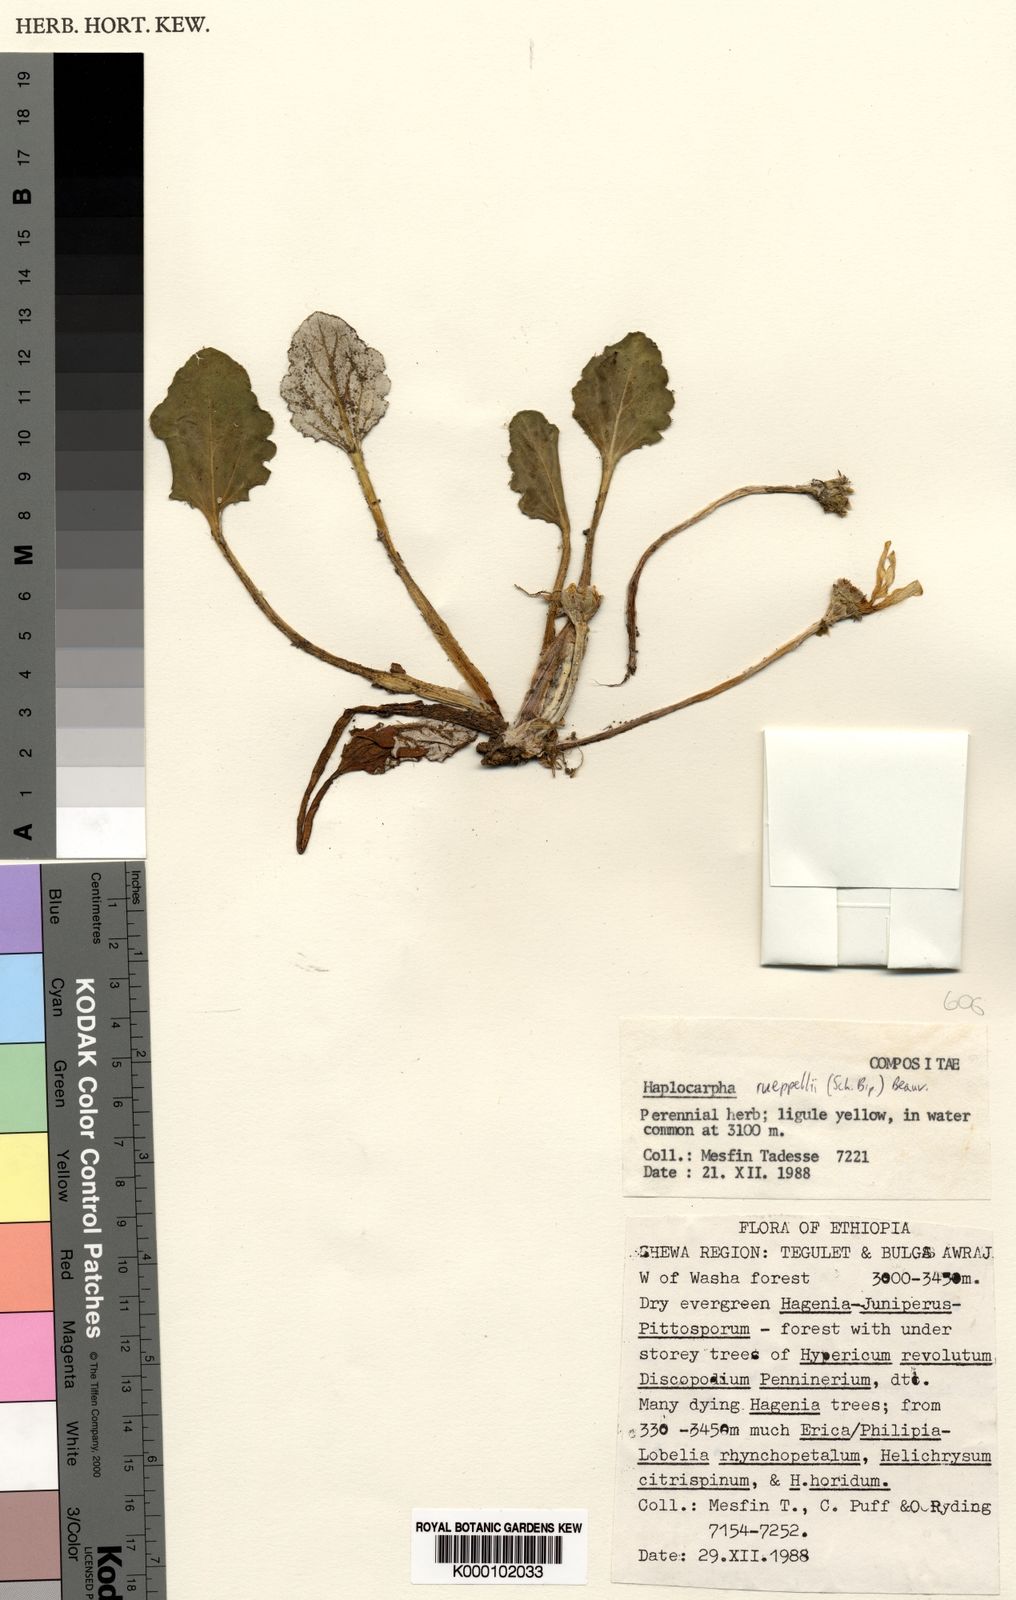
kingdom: Plantae
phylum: Tracheophyta
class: Magnoliopsida
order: Asterales
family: Asteraceae
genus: Haplocarpha
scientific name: Haplocarpha rueppelii
